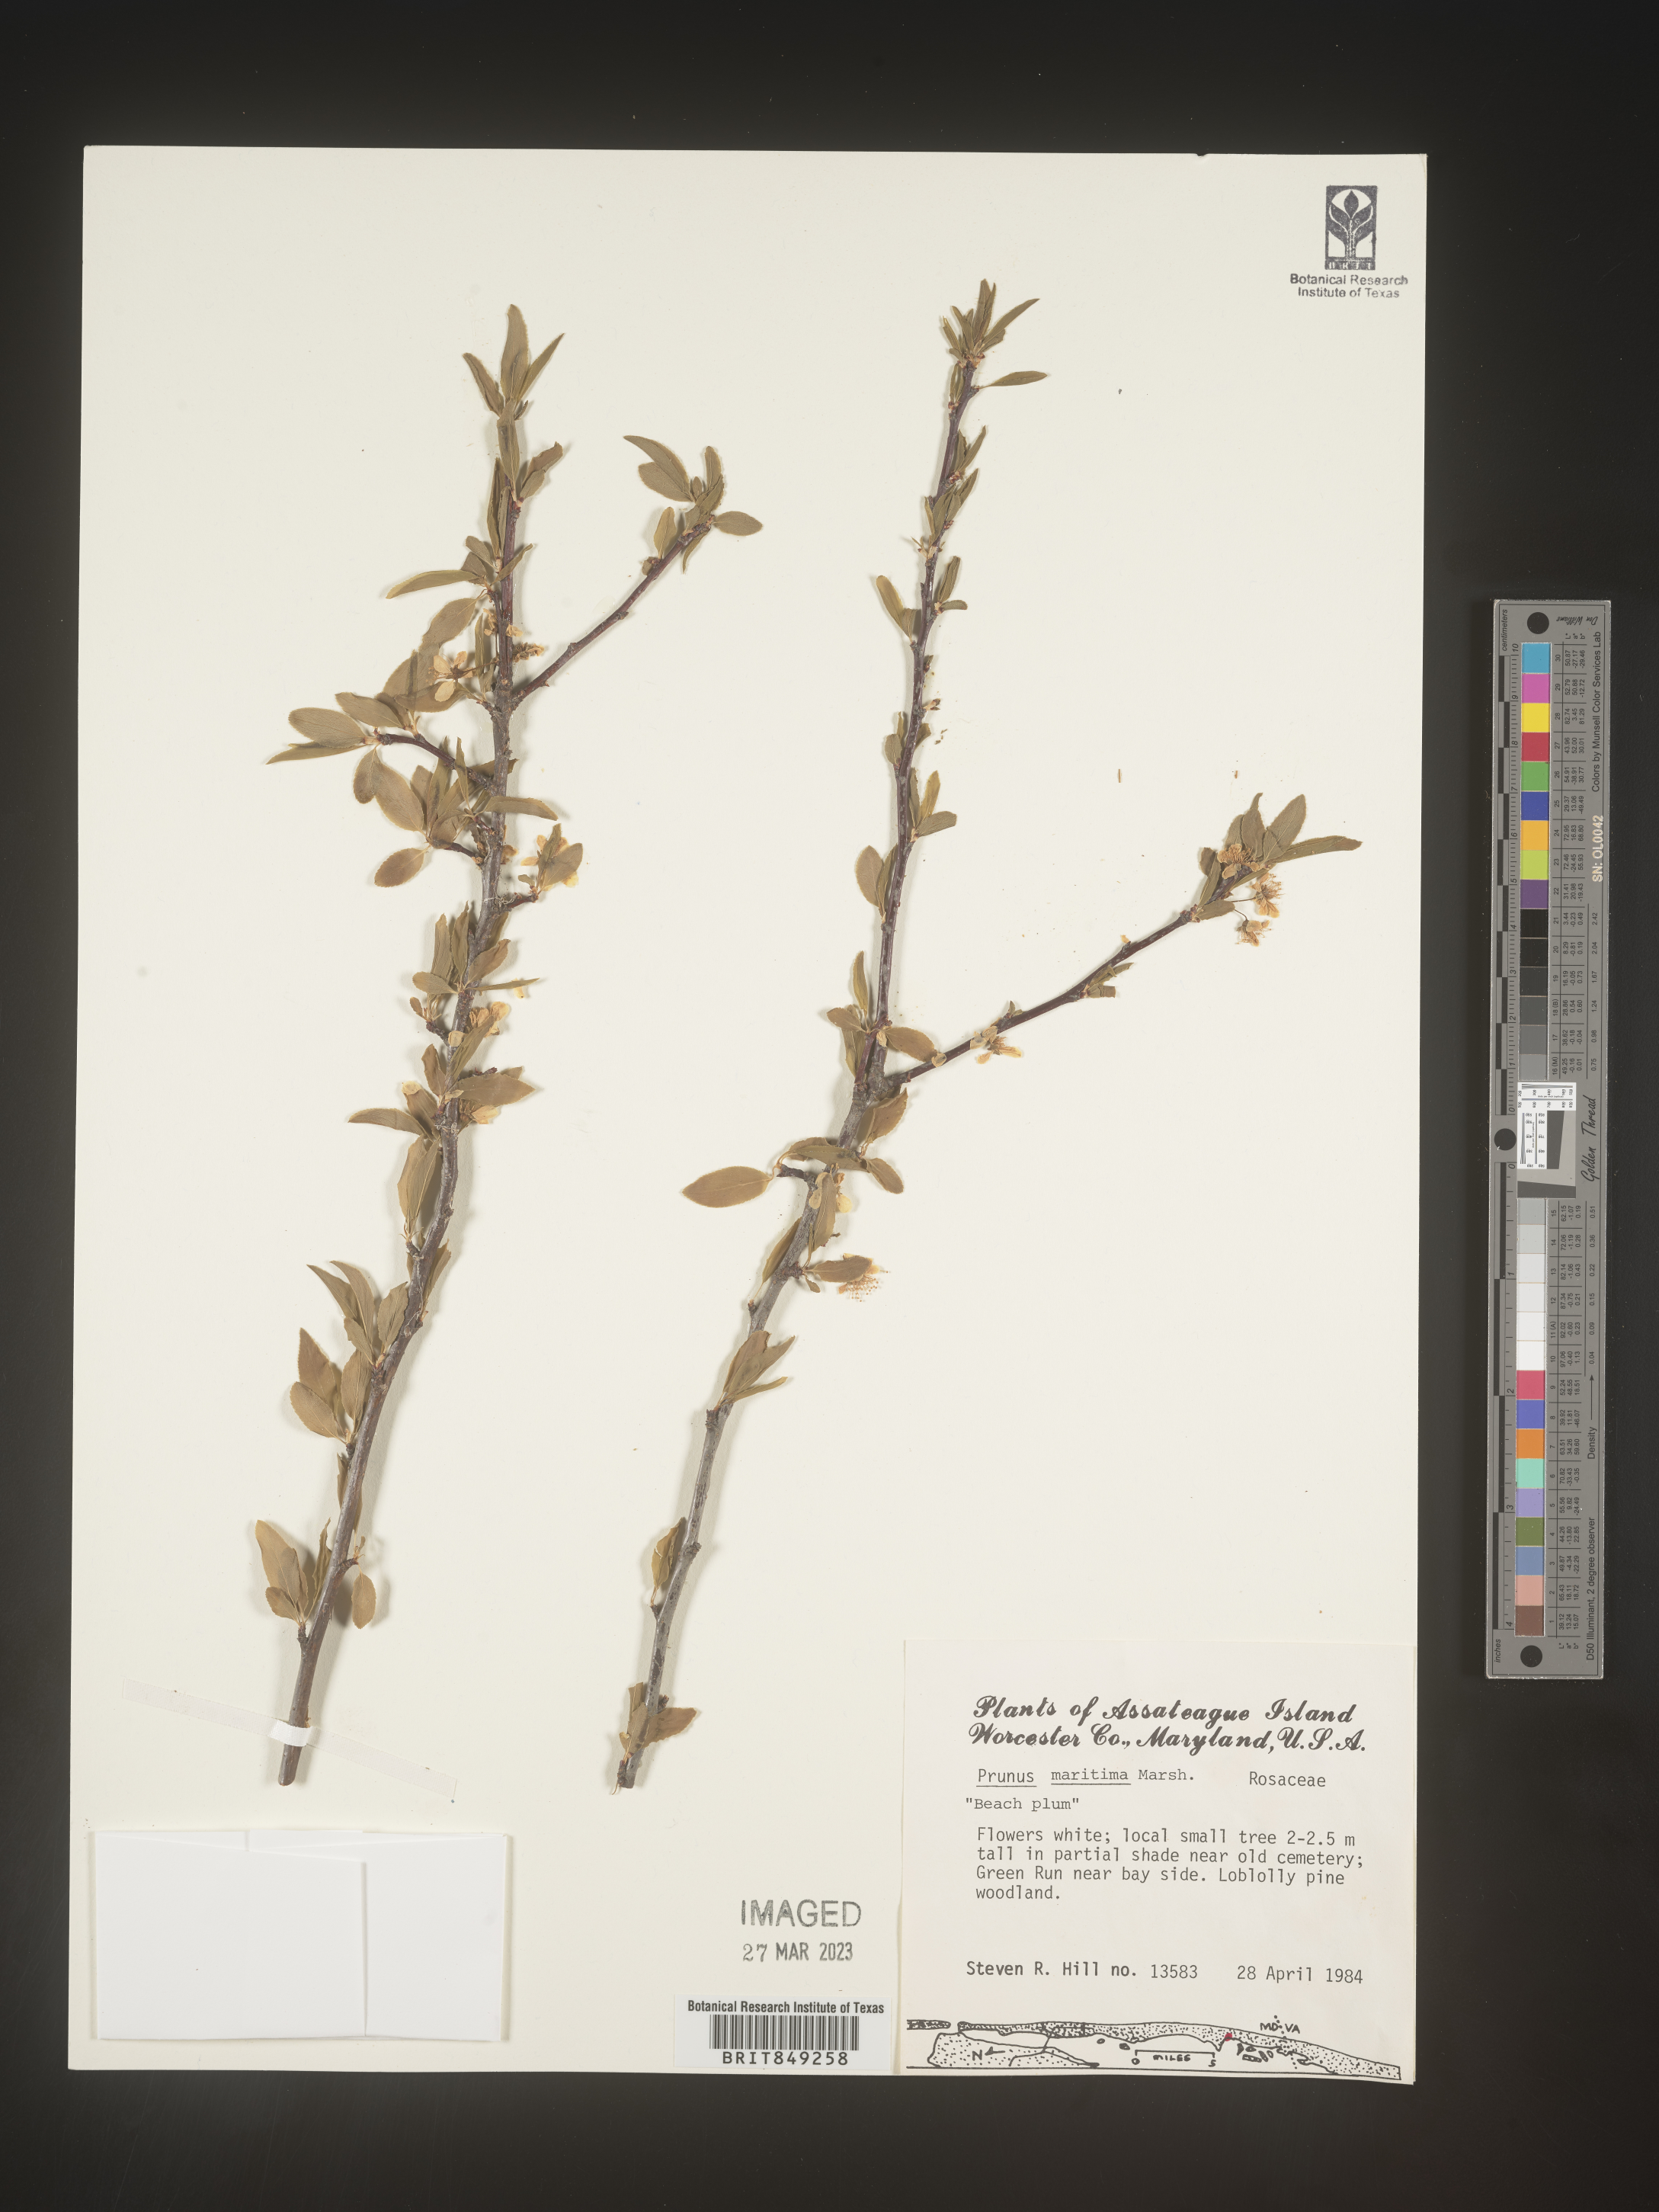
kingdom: Plantae
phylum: Tracheophyta
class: Magnoliopsida
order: Rosales
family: Rosaceae
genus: Prunus
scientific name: Prunus
